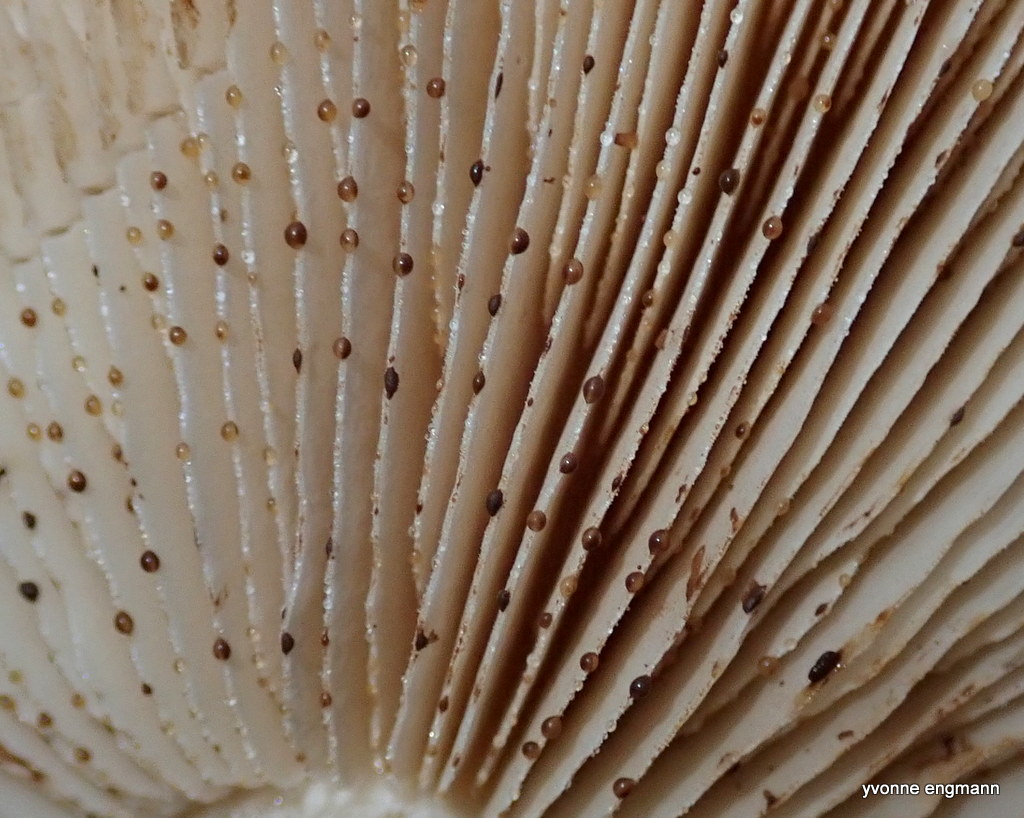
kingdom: Fungi
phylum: Basidiomycota
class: Agaricomycetes
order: Agaricales
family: Hymenogastraceae
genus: Hebeloma
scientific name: Hebeloma
